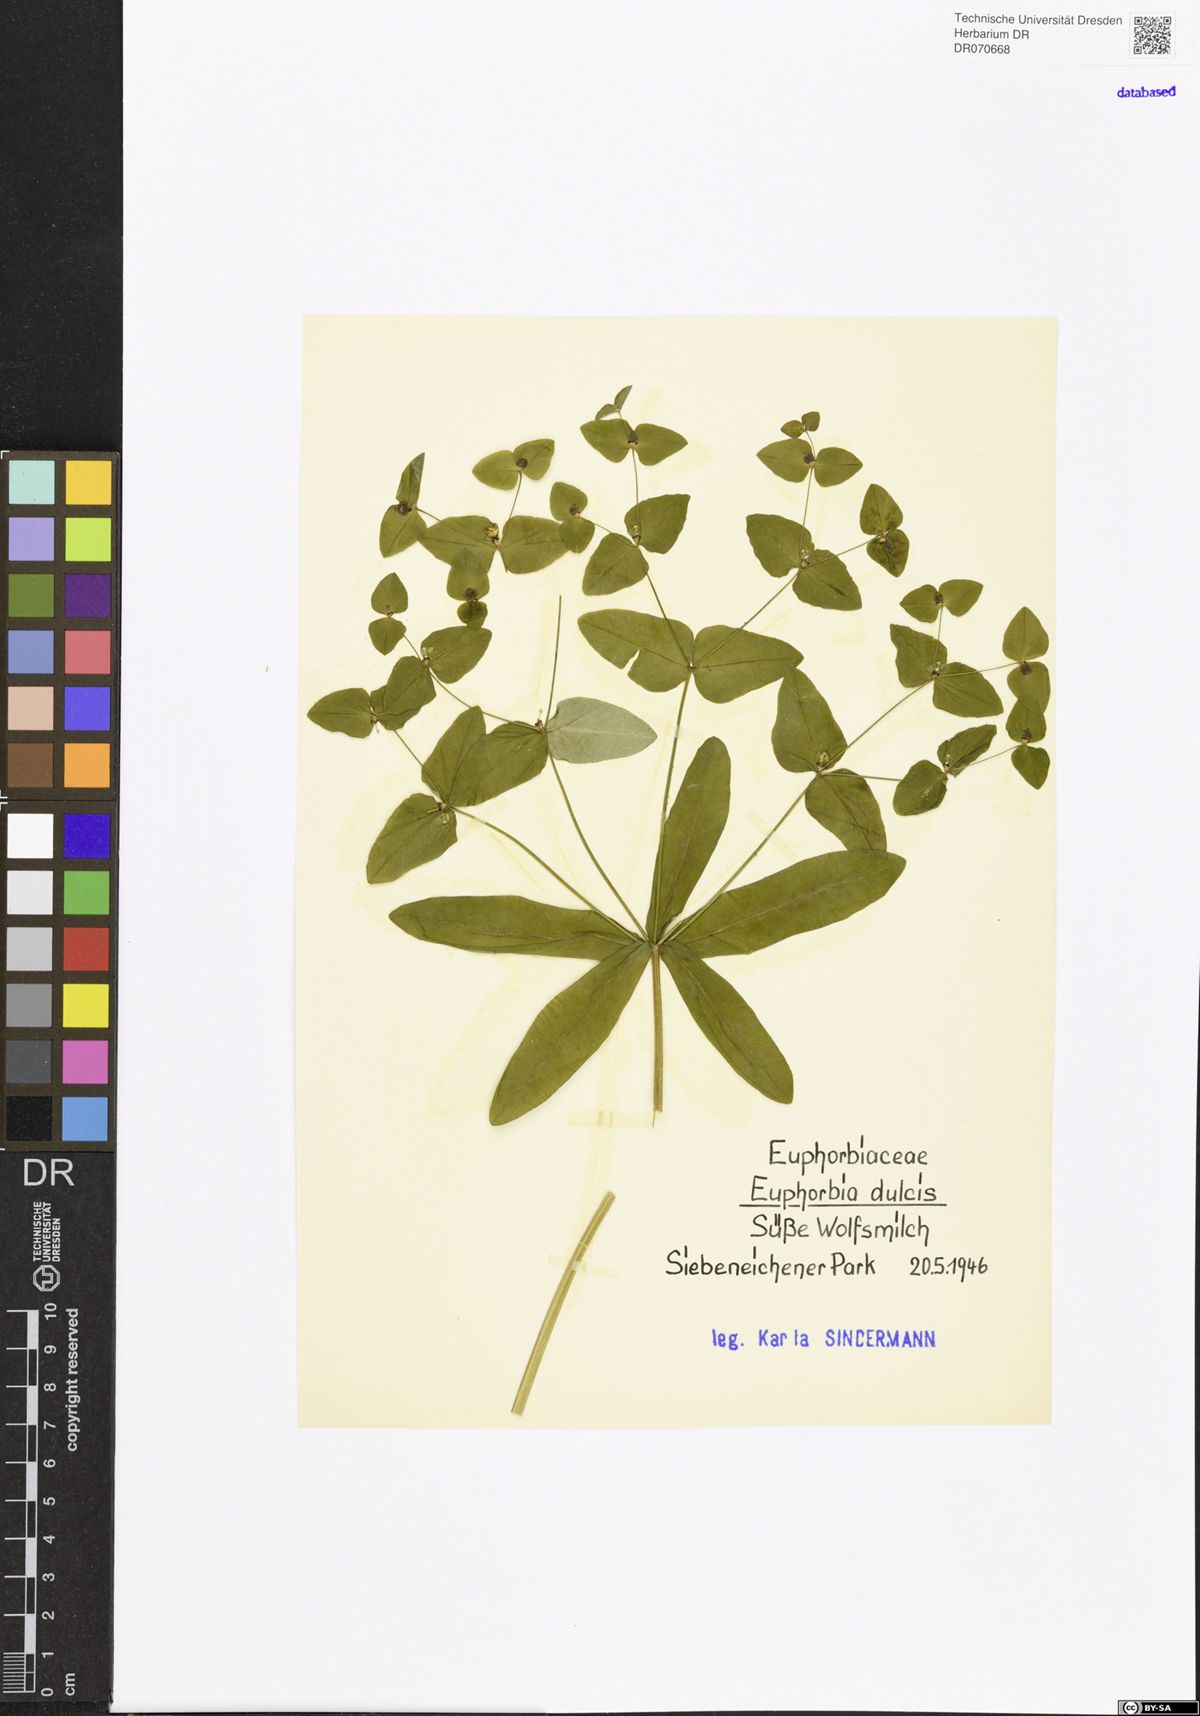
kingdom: Plantae
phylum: Tracheophyta
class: Magnoliopsida
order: Malpighiales
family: Euphorbiaceae
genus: Euphorbia
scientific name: Euphorbia dulcis
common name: Sweet spurge
